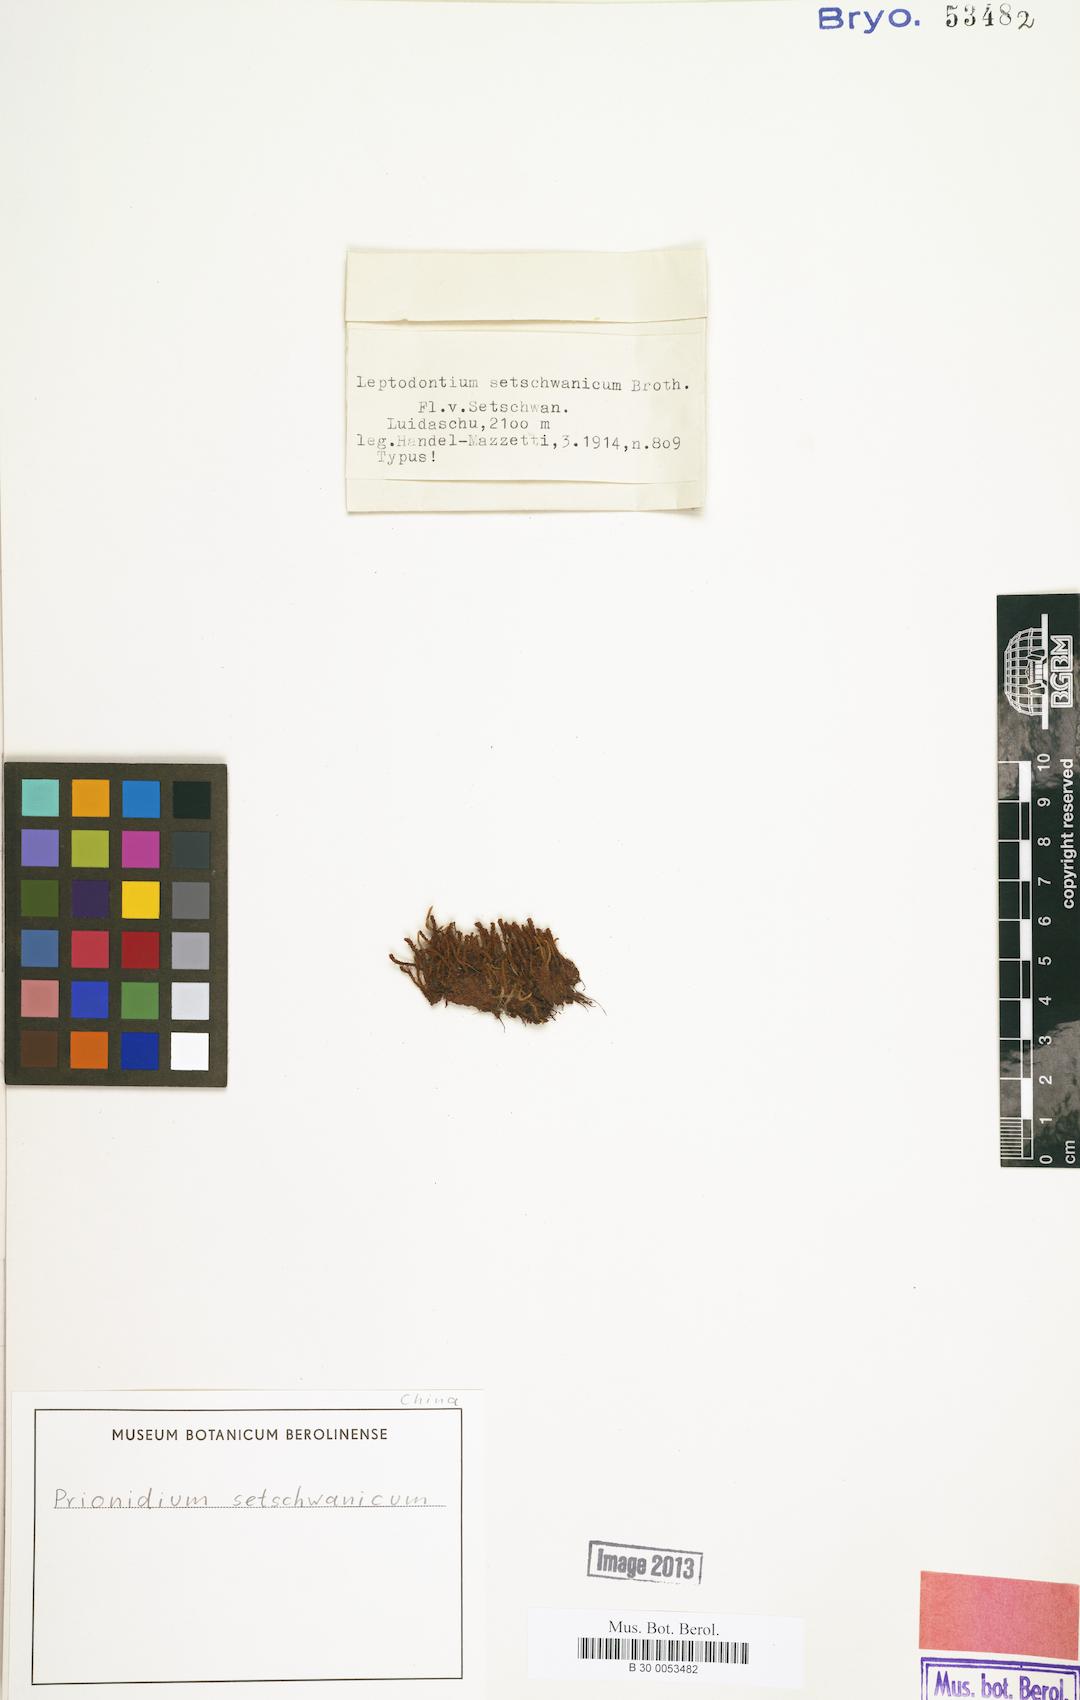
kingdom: Plantae
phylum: Bryophyta
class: Bryopsida
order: Pottiales
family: Pottiaceae
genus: Geheebia
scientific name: Geheebia erosodenticulata
